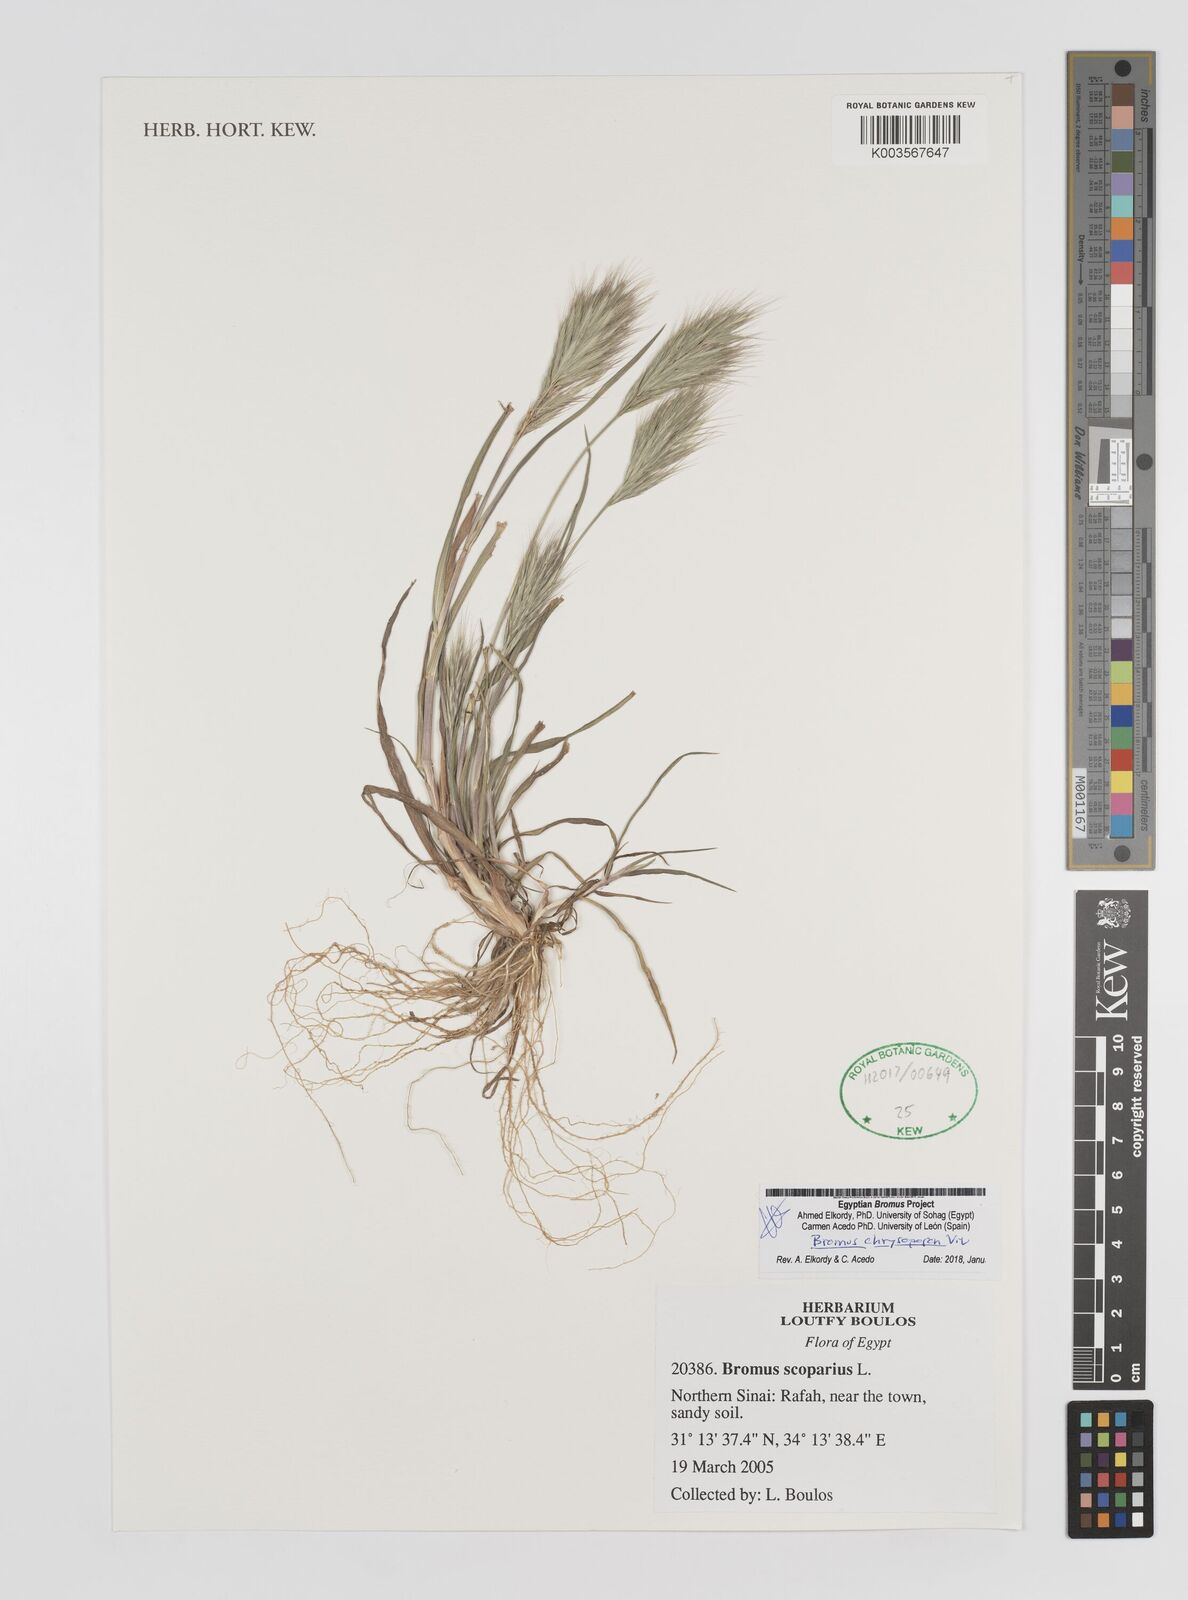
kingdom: Plantae
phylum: Tracheophyta
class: Liliopsida
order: Poales
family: Poaceae
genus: Bromus
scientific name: Bromus chrysopogon
